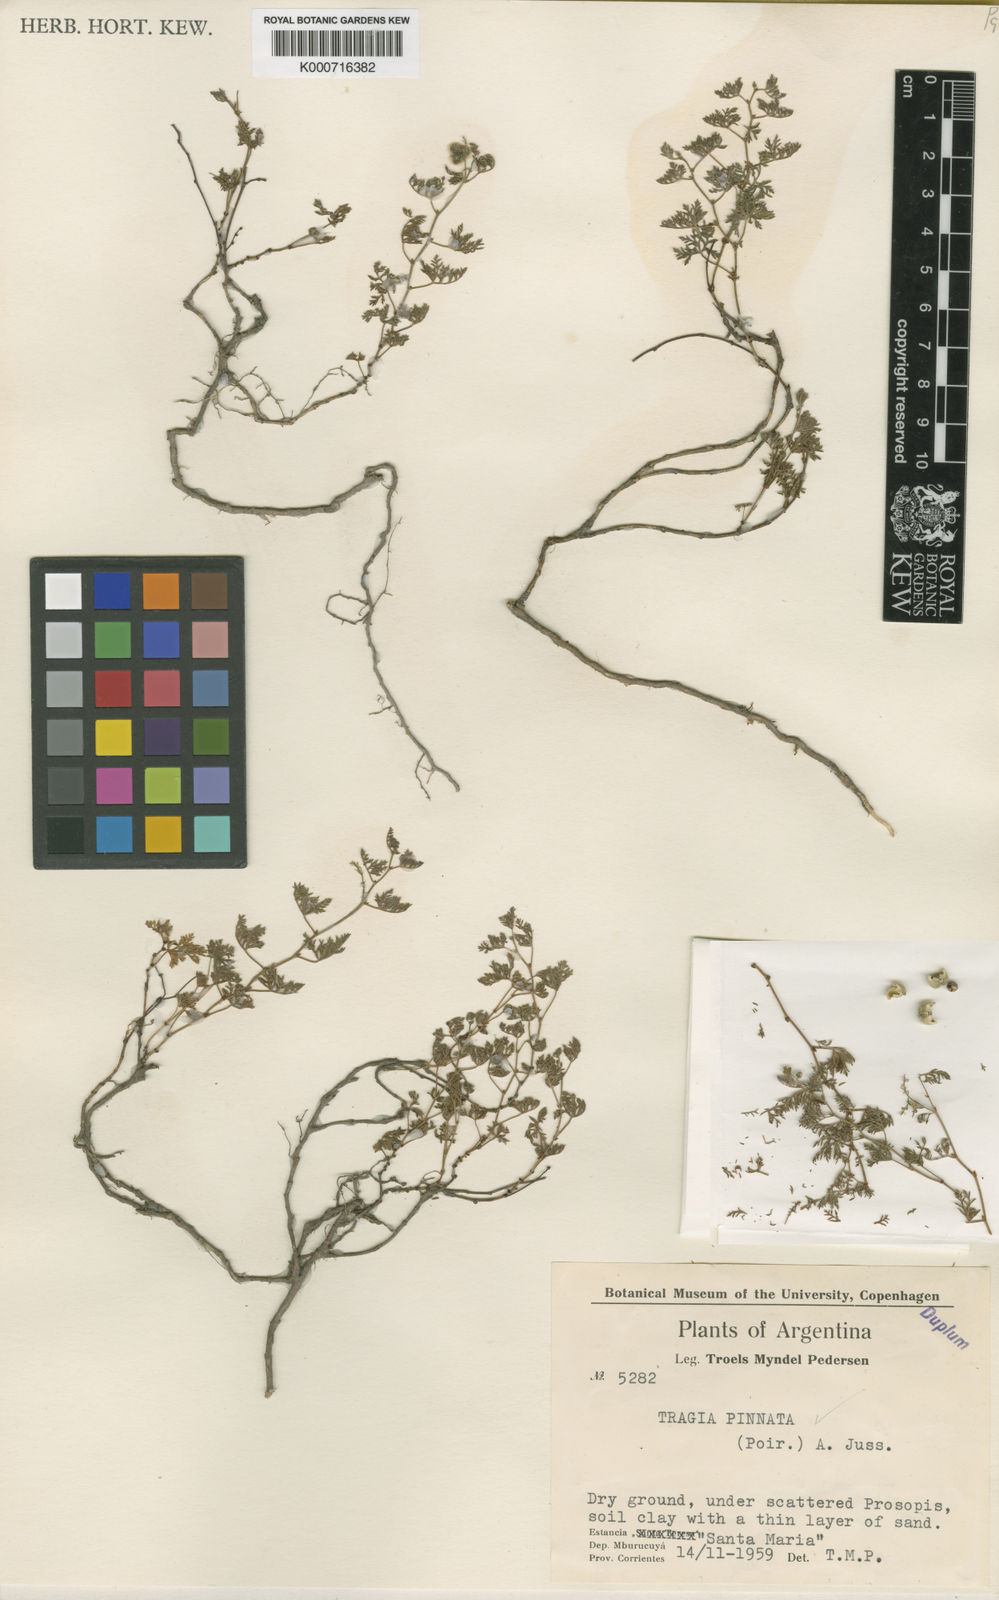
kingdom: Plantae
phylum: Tracheophyta
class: Magnoliopsida
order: Malpighiales
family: Euphorbiaceae
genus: Tragia
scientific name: Tragia pinnata
